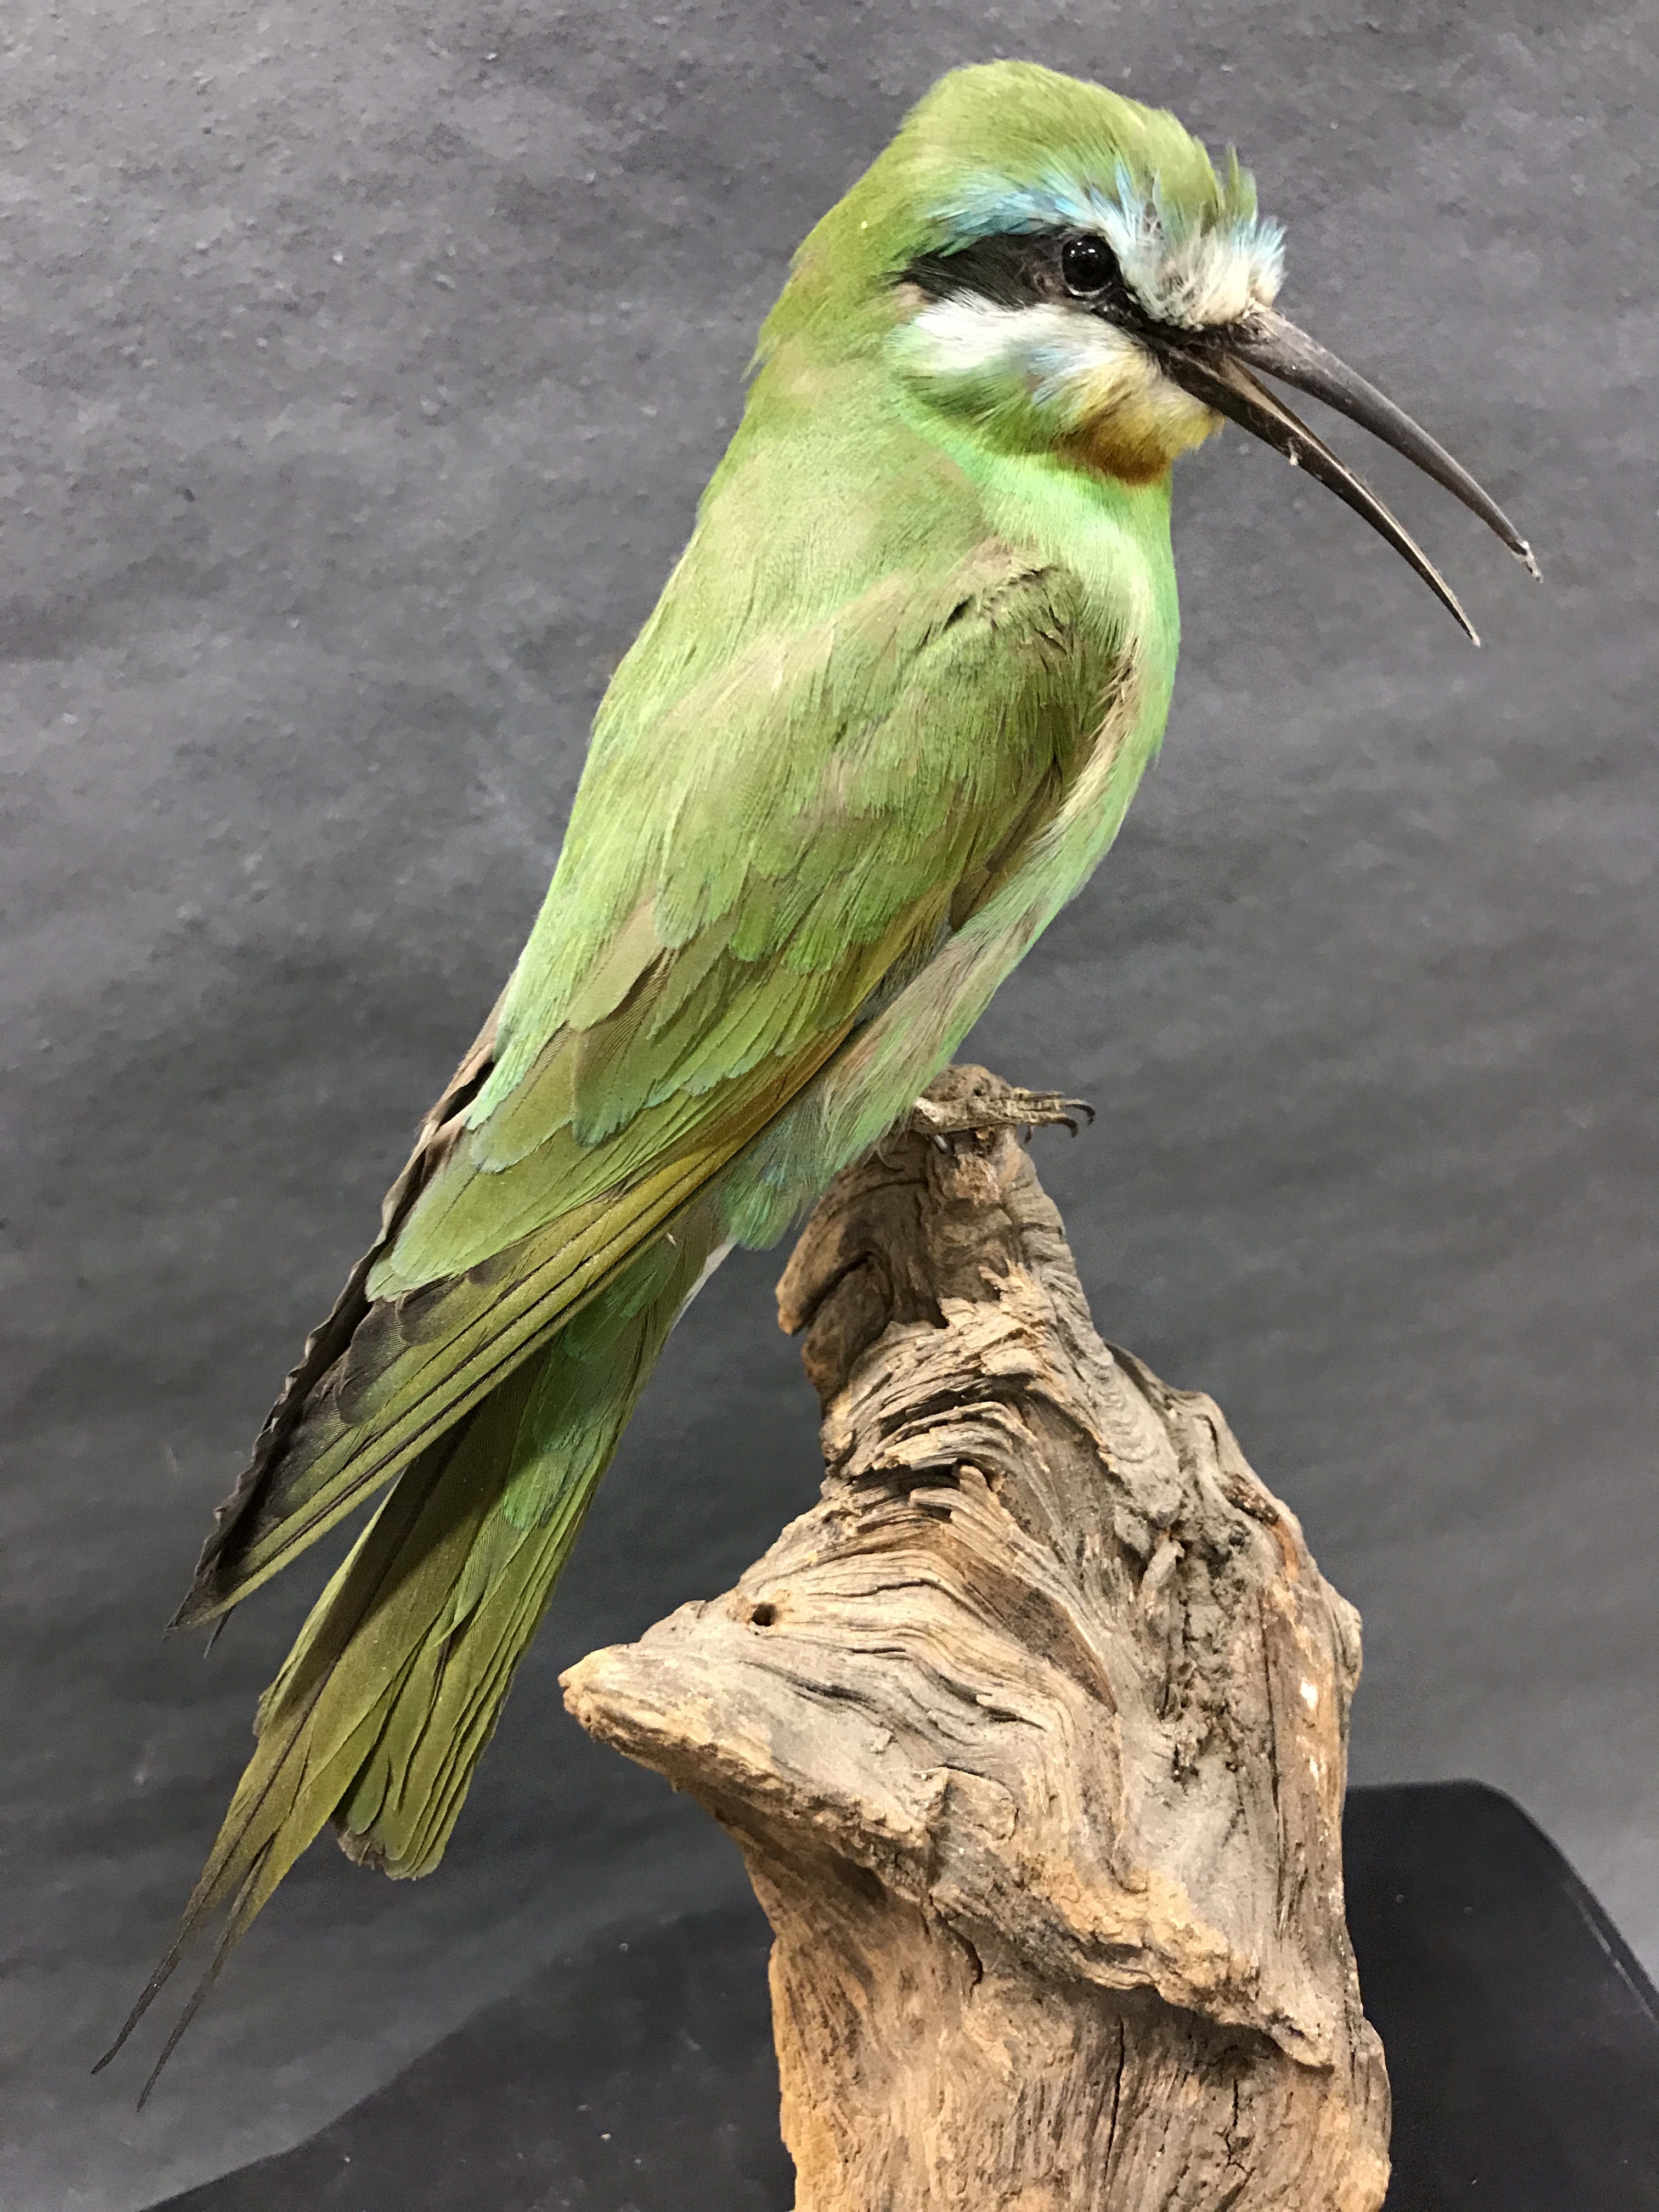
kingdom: Animalia
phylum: Chordata
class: Aves
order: Coraciiformes
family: Meropidae
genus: Merops
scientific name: Merops persicus
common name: Blue-cheeked bee-eater
